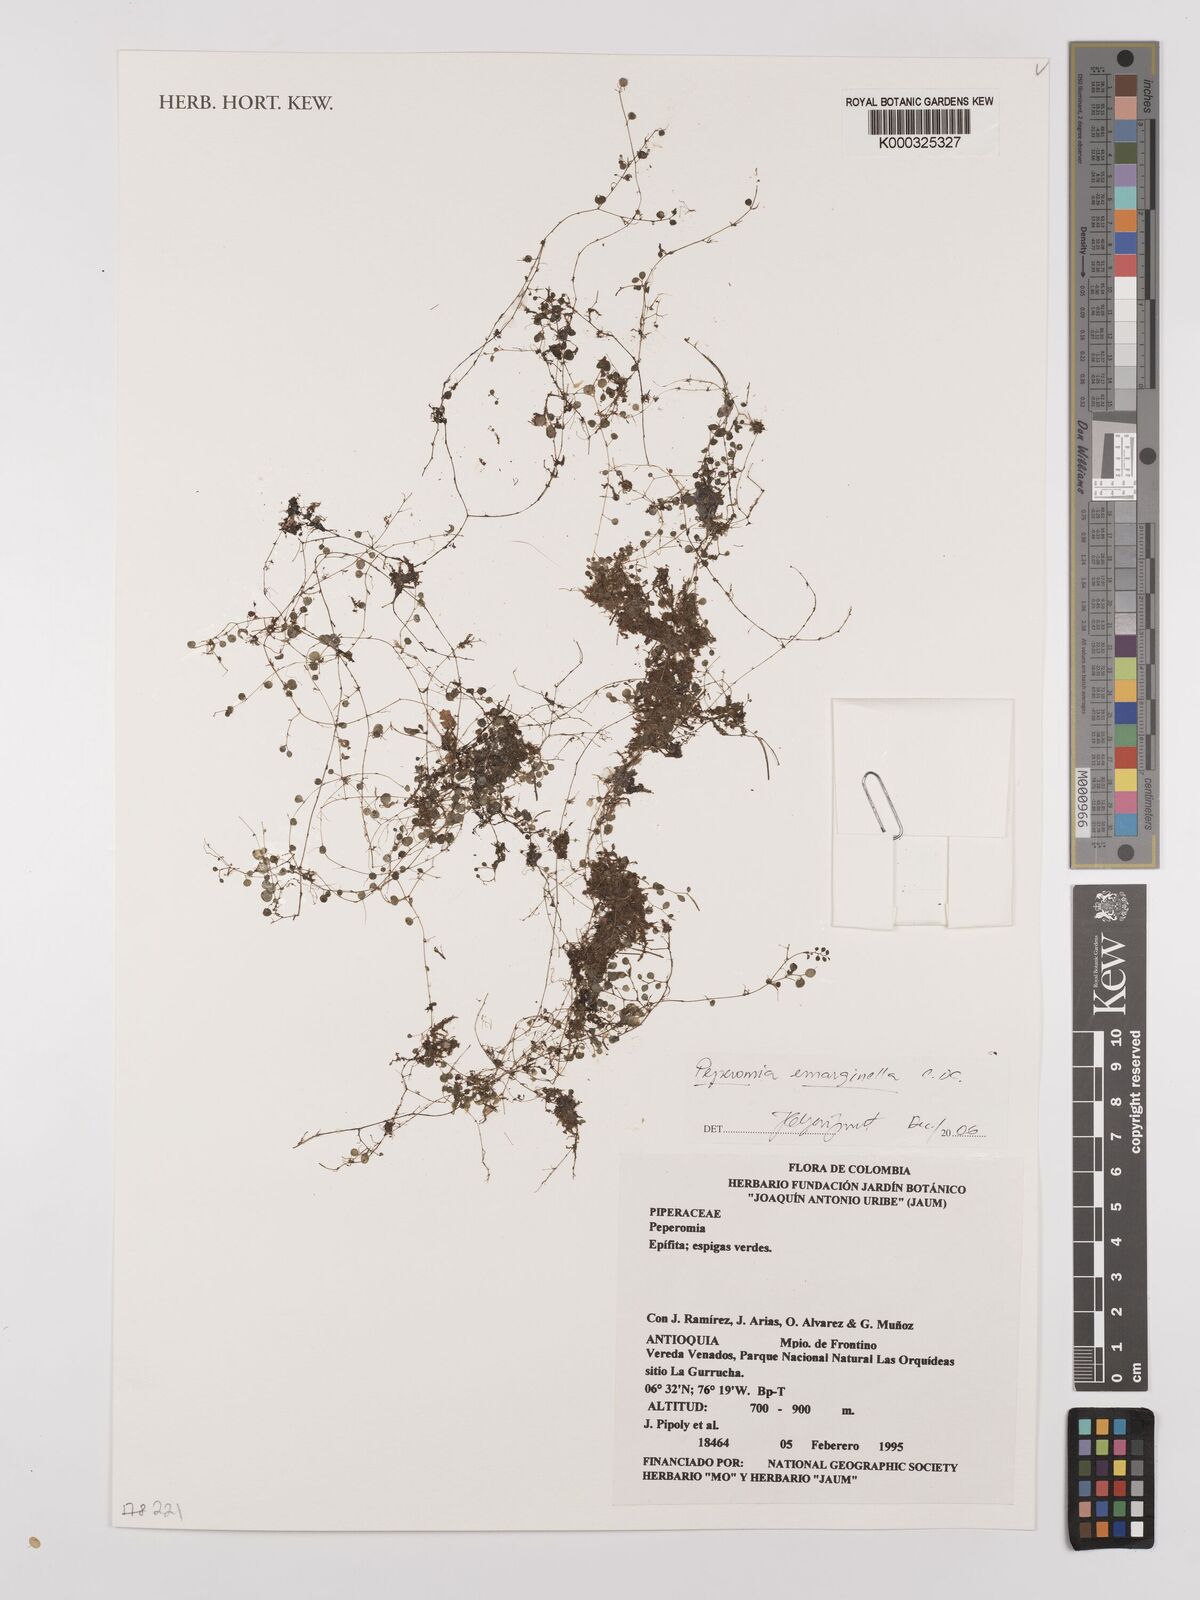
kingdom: Plantae
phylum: Tracheophyta
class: Magnoliopsida
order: Piperales
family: Piperaceae
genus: Peperomia
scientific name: Peperomia emarginella
